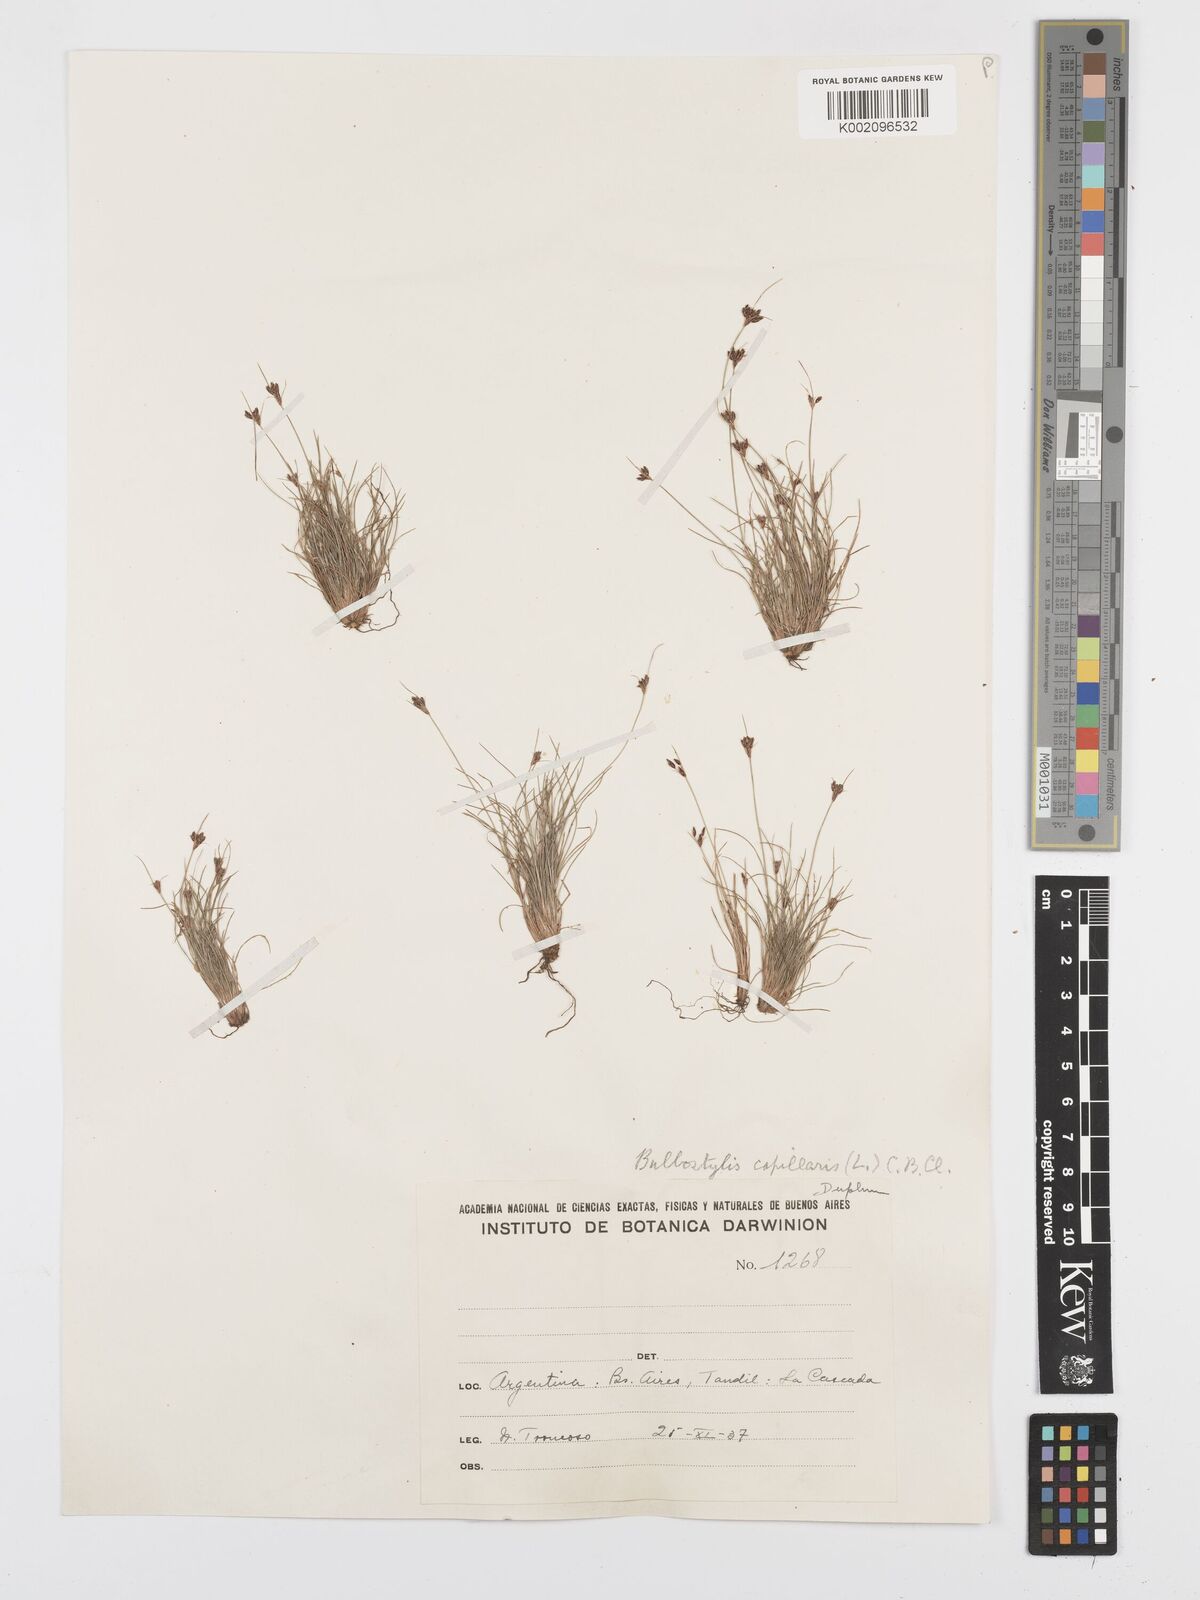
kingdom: Plantae
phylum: Tracheophyta
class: Liliopsida
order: Poales
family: Cyperaceae
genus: Bulbostylis
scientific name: Bulbostylis capillaris
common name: Densetuft hairsedge
